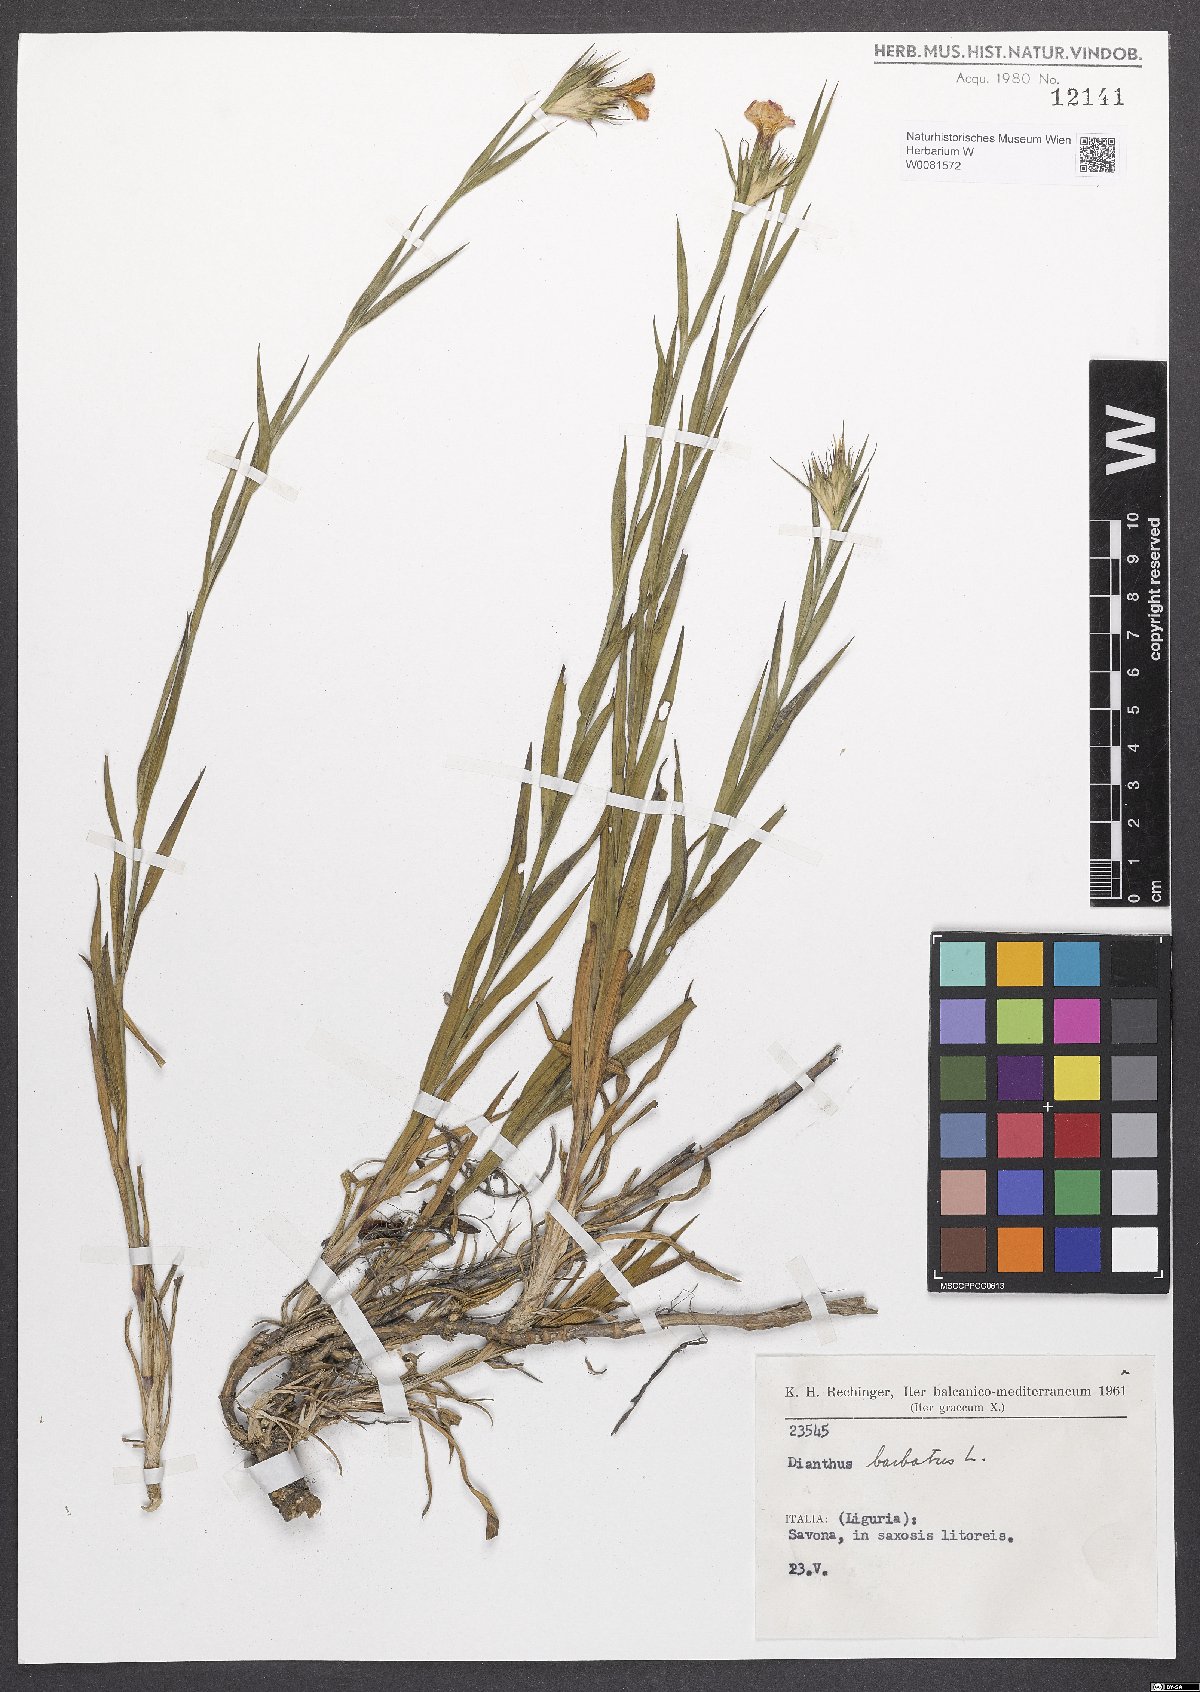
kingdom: Plantae
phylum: Tracheophyta
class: Magnoliopsida
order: Caryophyllales
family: Caryophyllaceae
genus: Dianthus
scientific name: Dianthus barbatus
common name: Sweet-william
